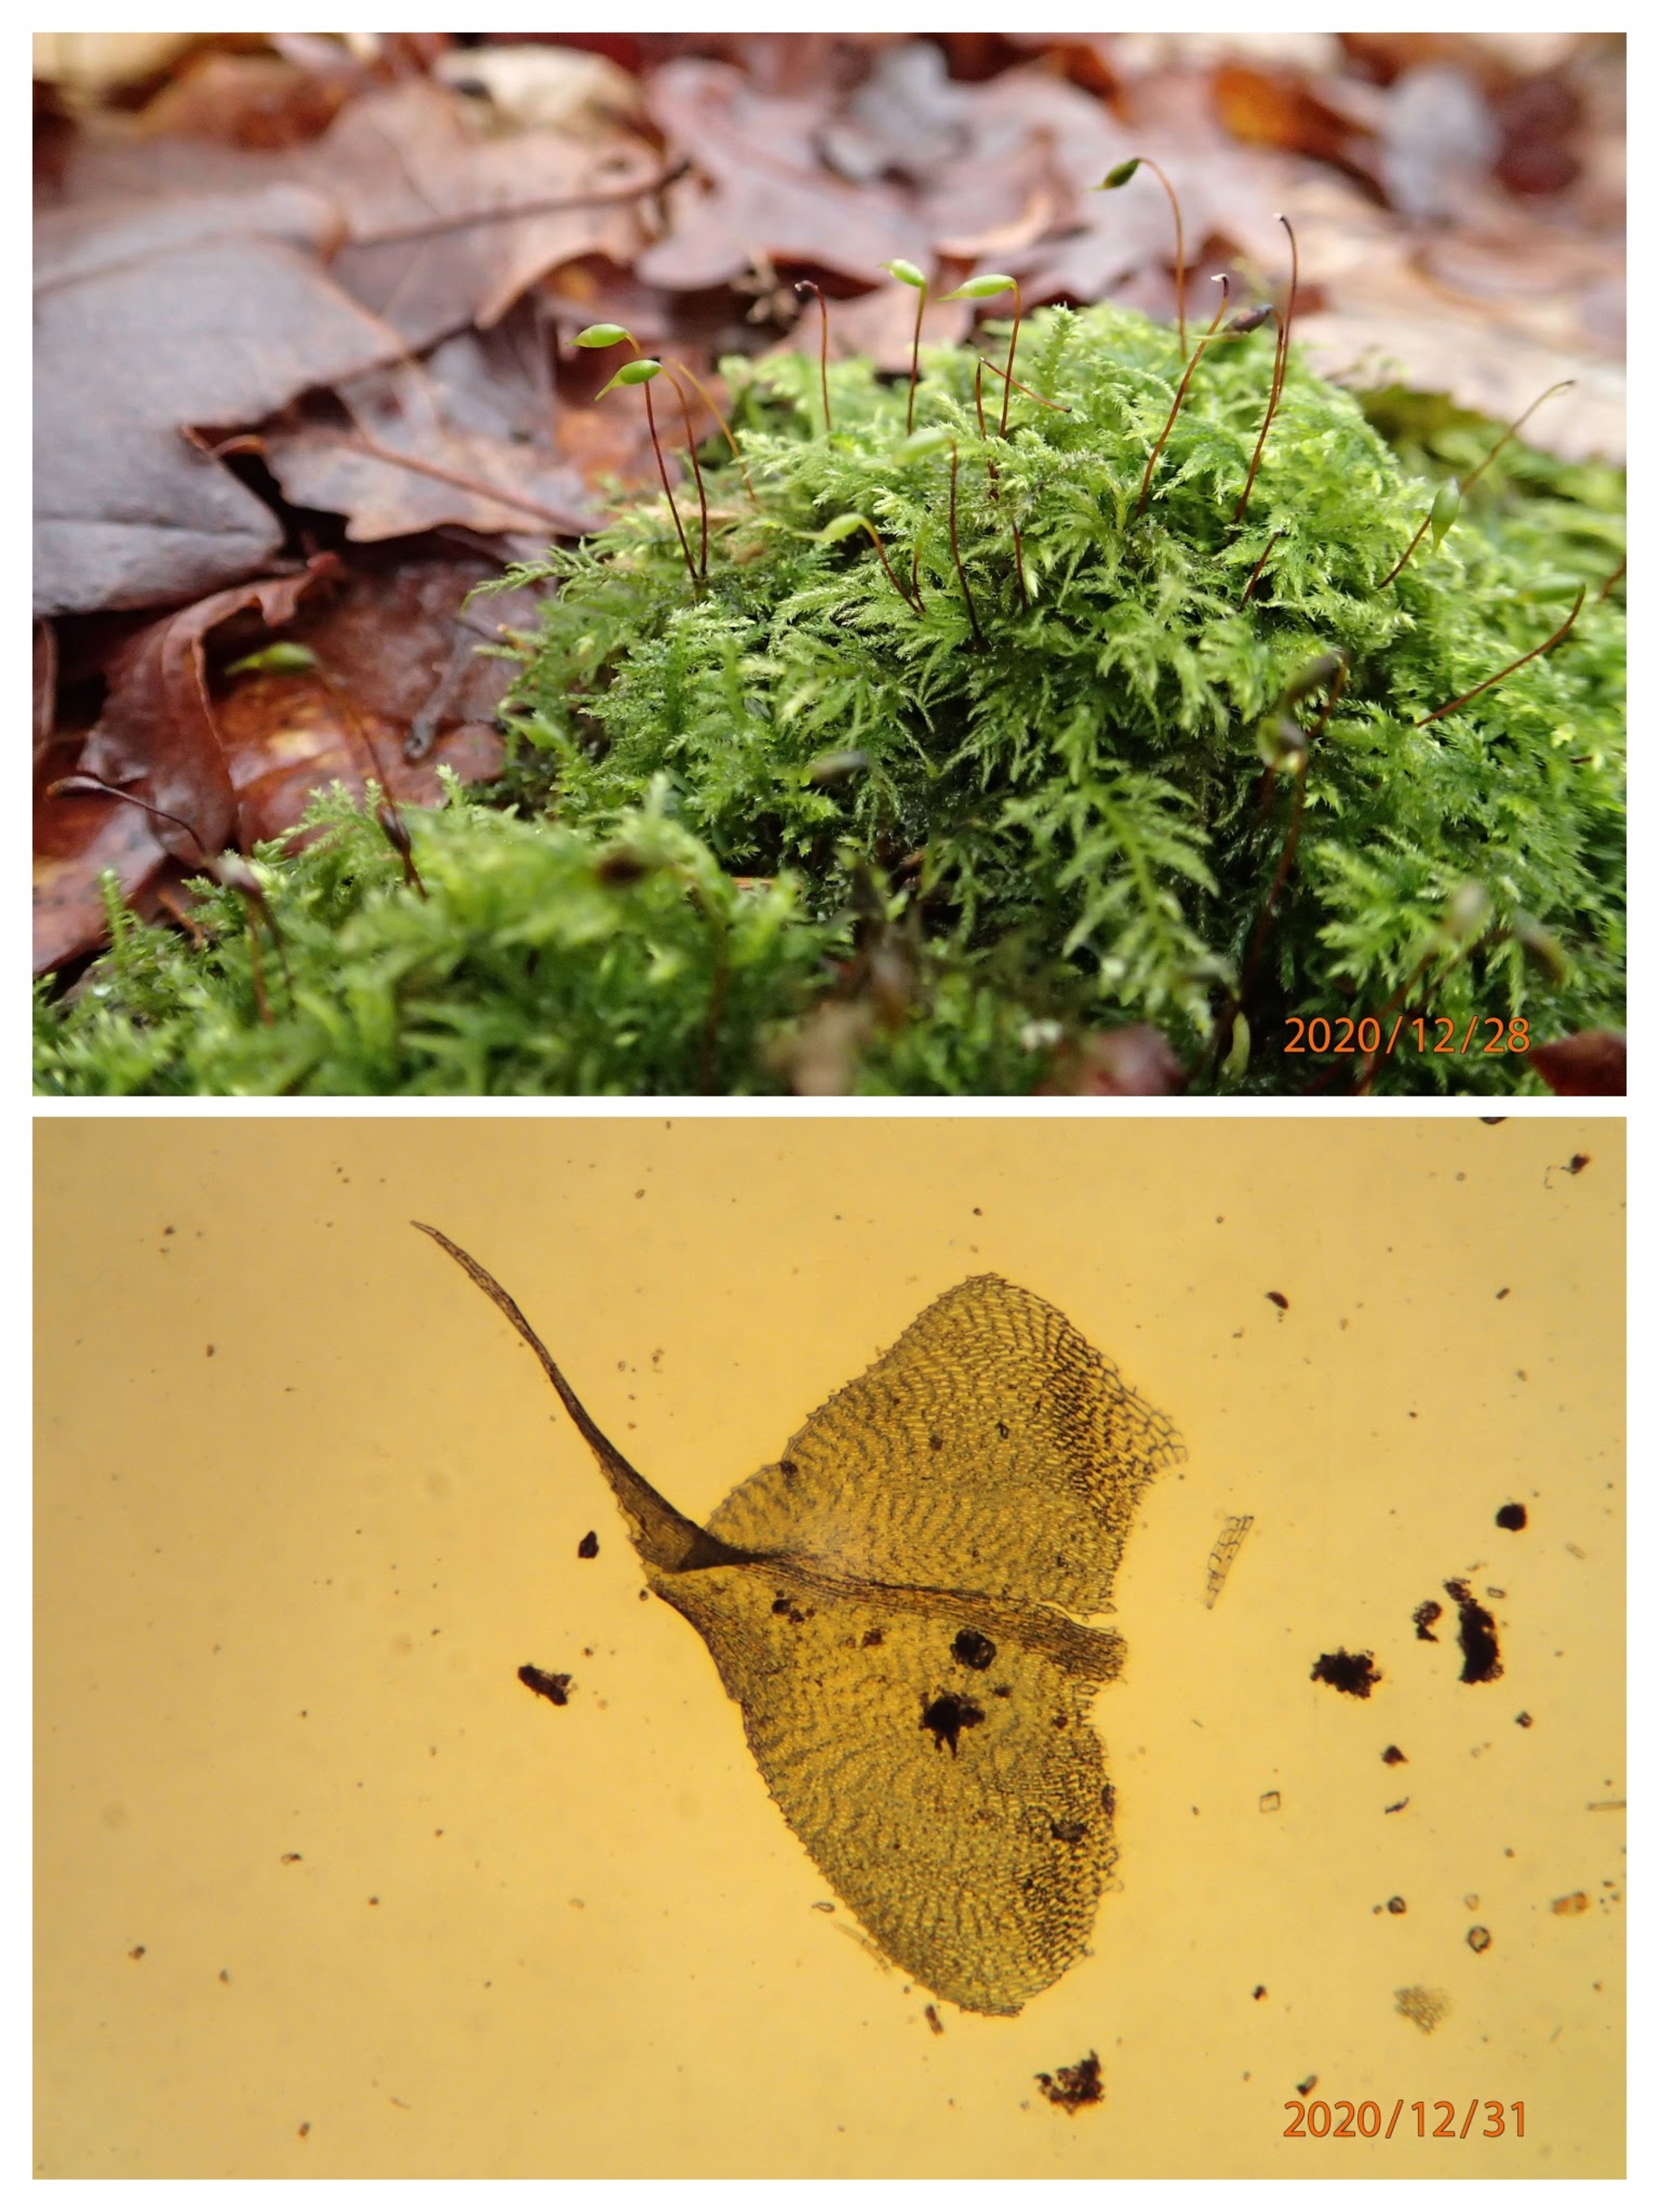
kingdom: Plantae
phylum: Bryophyta
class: Bryopsida
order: Hypnales
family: Brachytheciaceae
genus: Kindbergia
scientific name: Kindbergia praelonga
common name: Forskelligbladet vortetand
